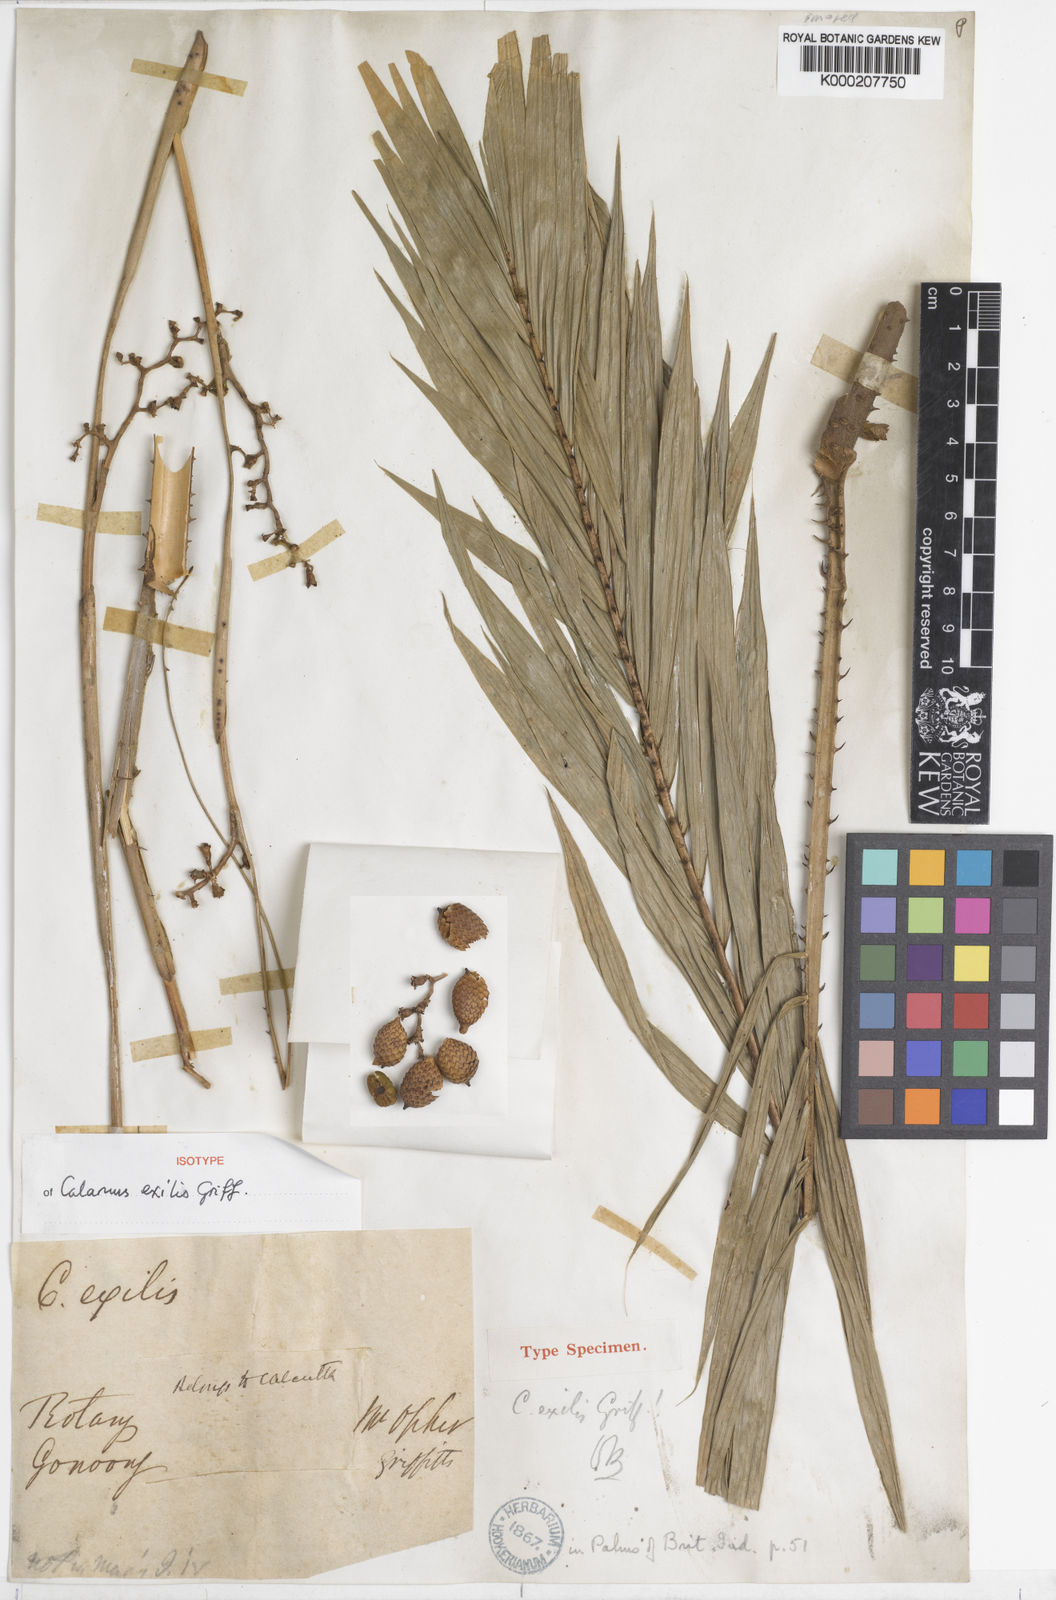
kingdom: Plantae
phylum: Tracheophyta
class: Liliopsida
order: Arecales
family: Arecaceae
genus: Calamus
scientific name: Calamus exilis
